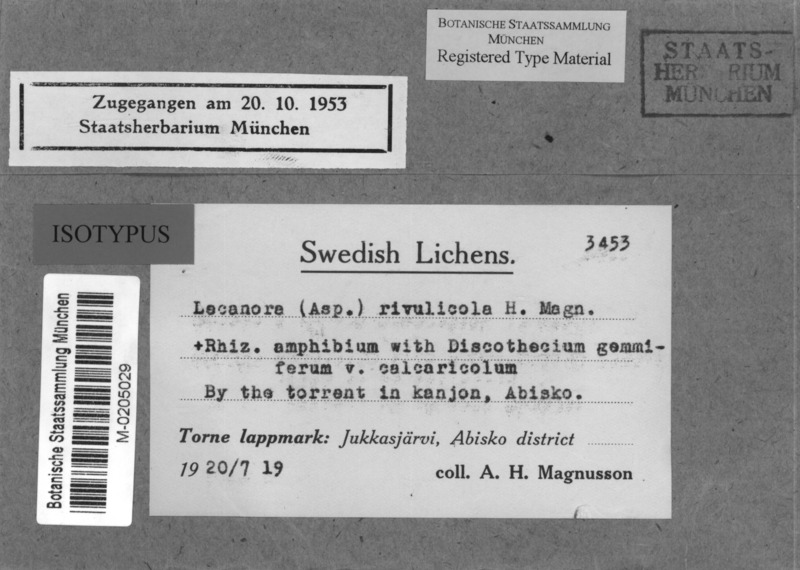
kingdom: Fungi
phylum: Ascomycota
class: Lecanoromycetes
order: Pertusariales
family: Megasporaceae
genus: Oxneriaria
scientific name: Oxneriaria rivulicola
